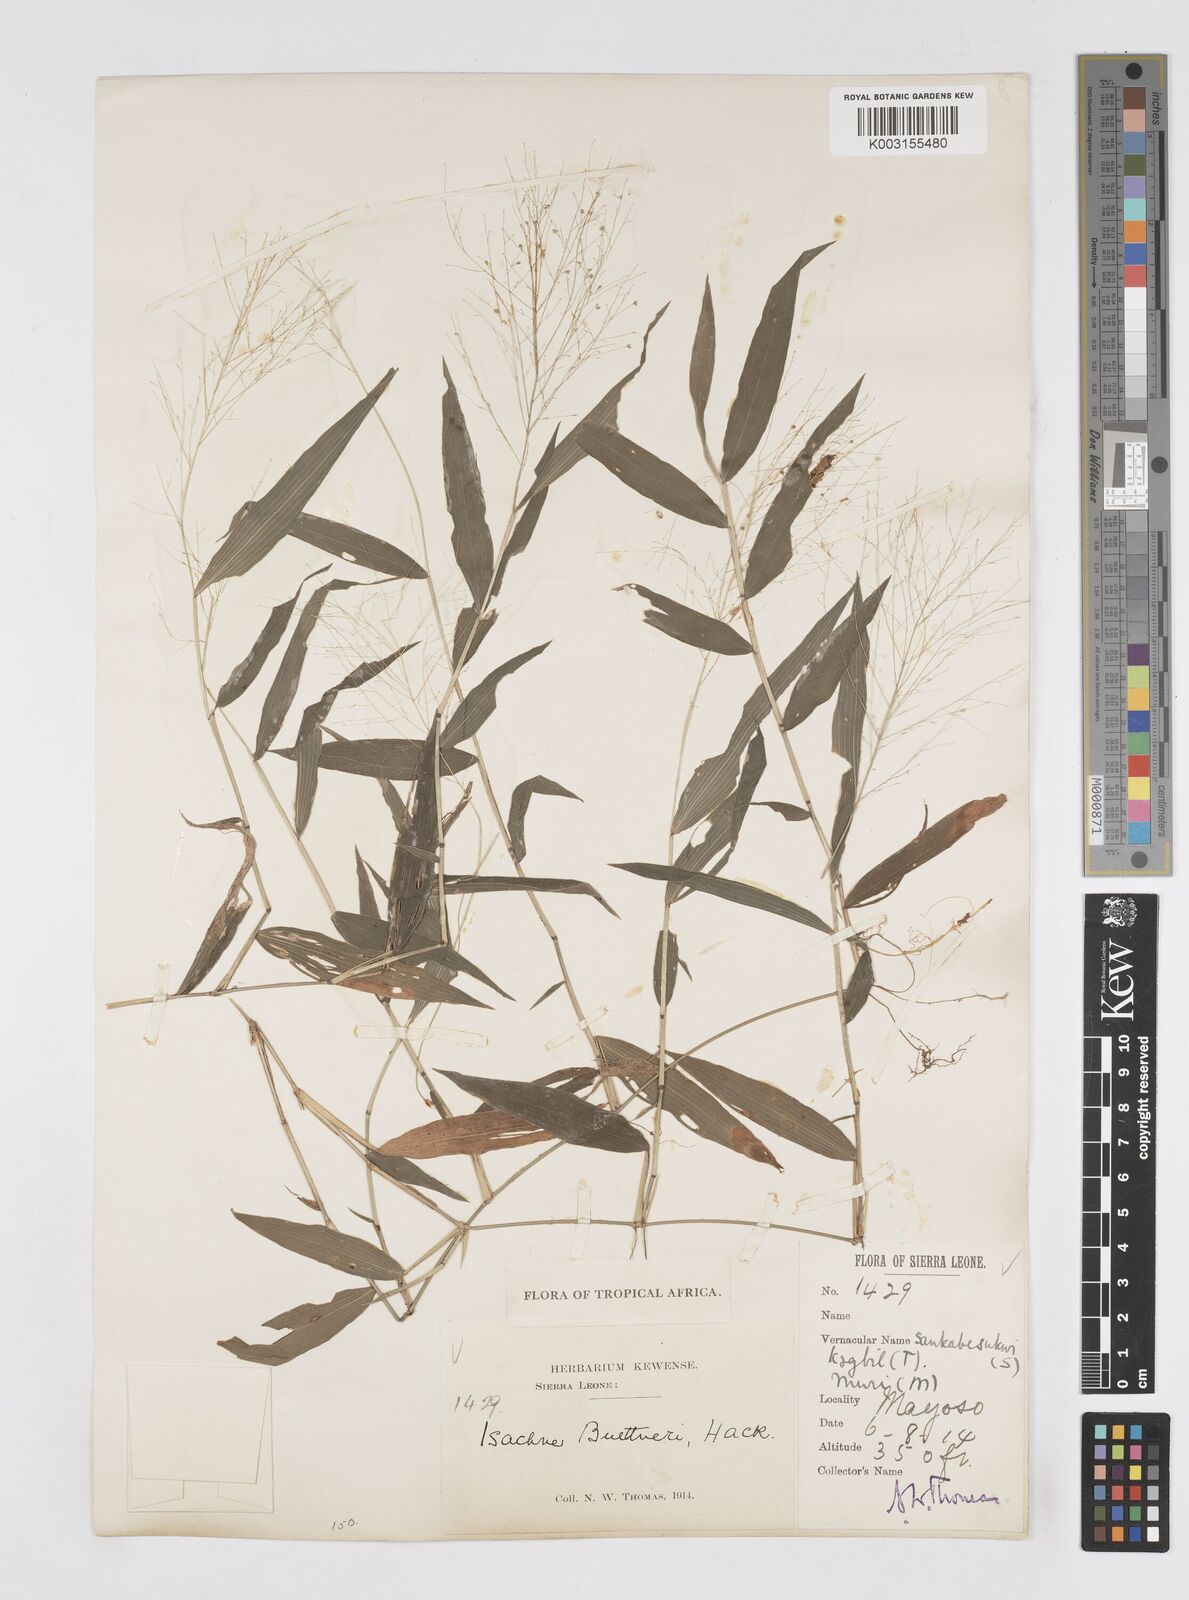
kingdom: Plantae
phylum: Tracheophyta
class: Liliopsida
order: Poales
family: Poaceae
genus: Isachne
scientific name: Isachne albens
